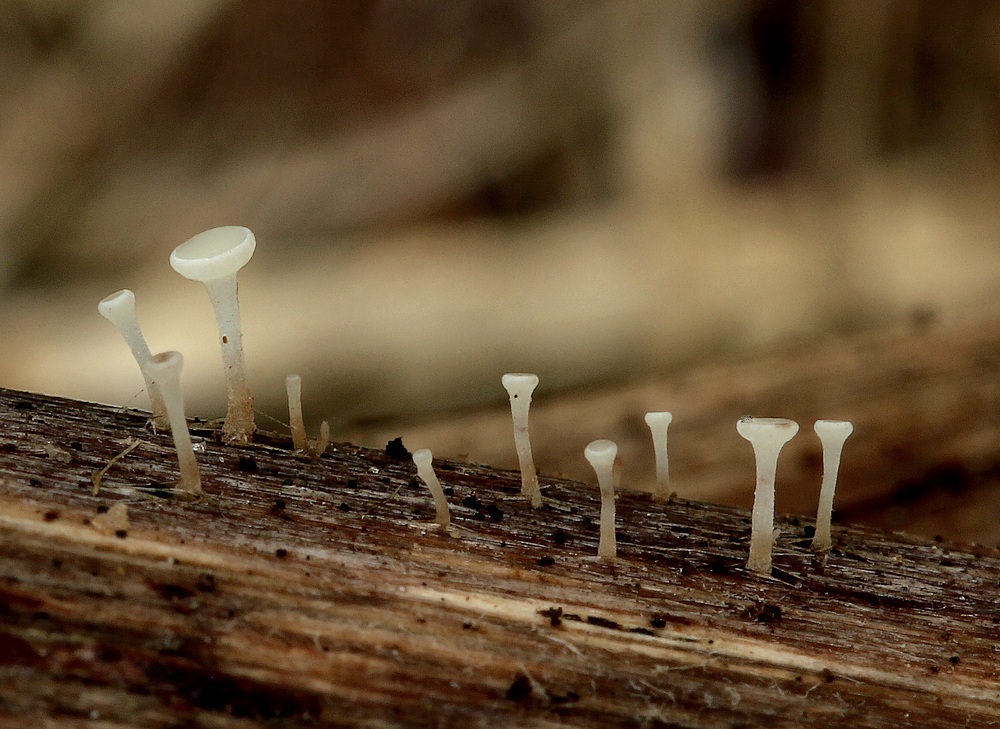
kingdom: Fungi
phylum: Ascomycota
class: Leotiomycetes
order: Helotiales
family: Helotiaceae
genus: Hymenoscyphus
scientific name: Hymenoscyphus scutula
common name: almindelig stilkskive
